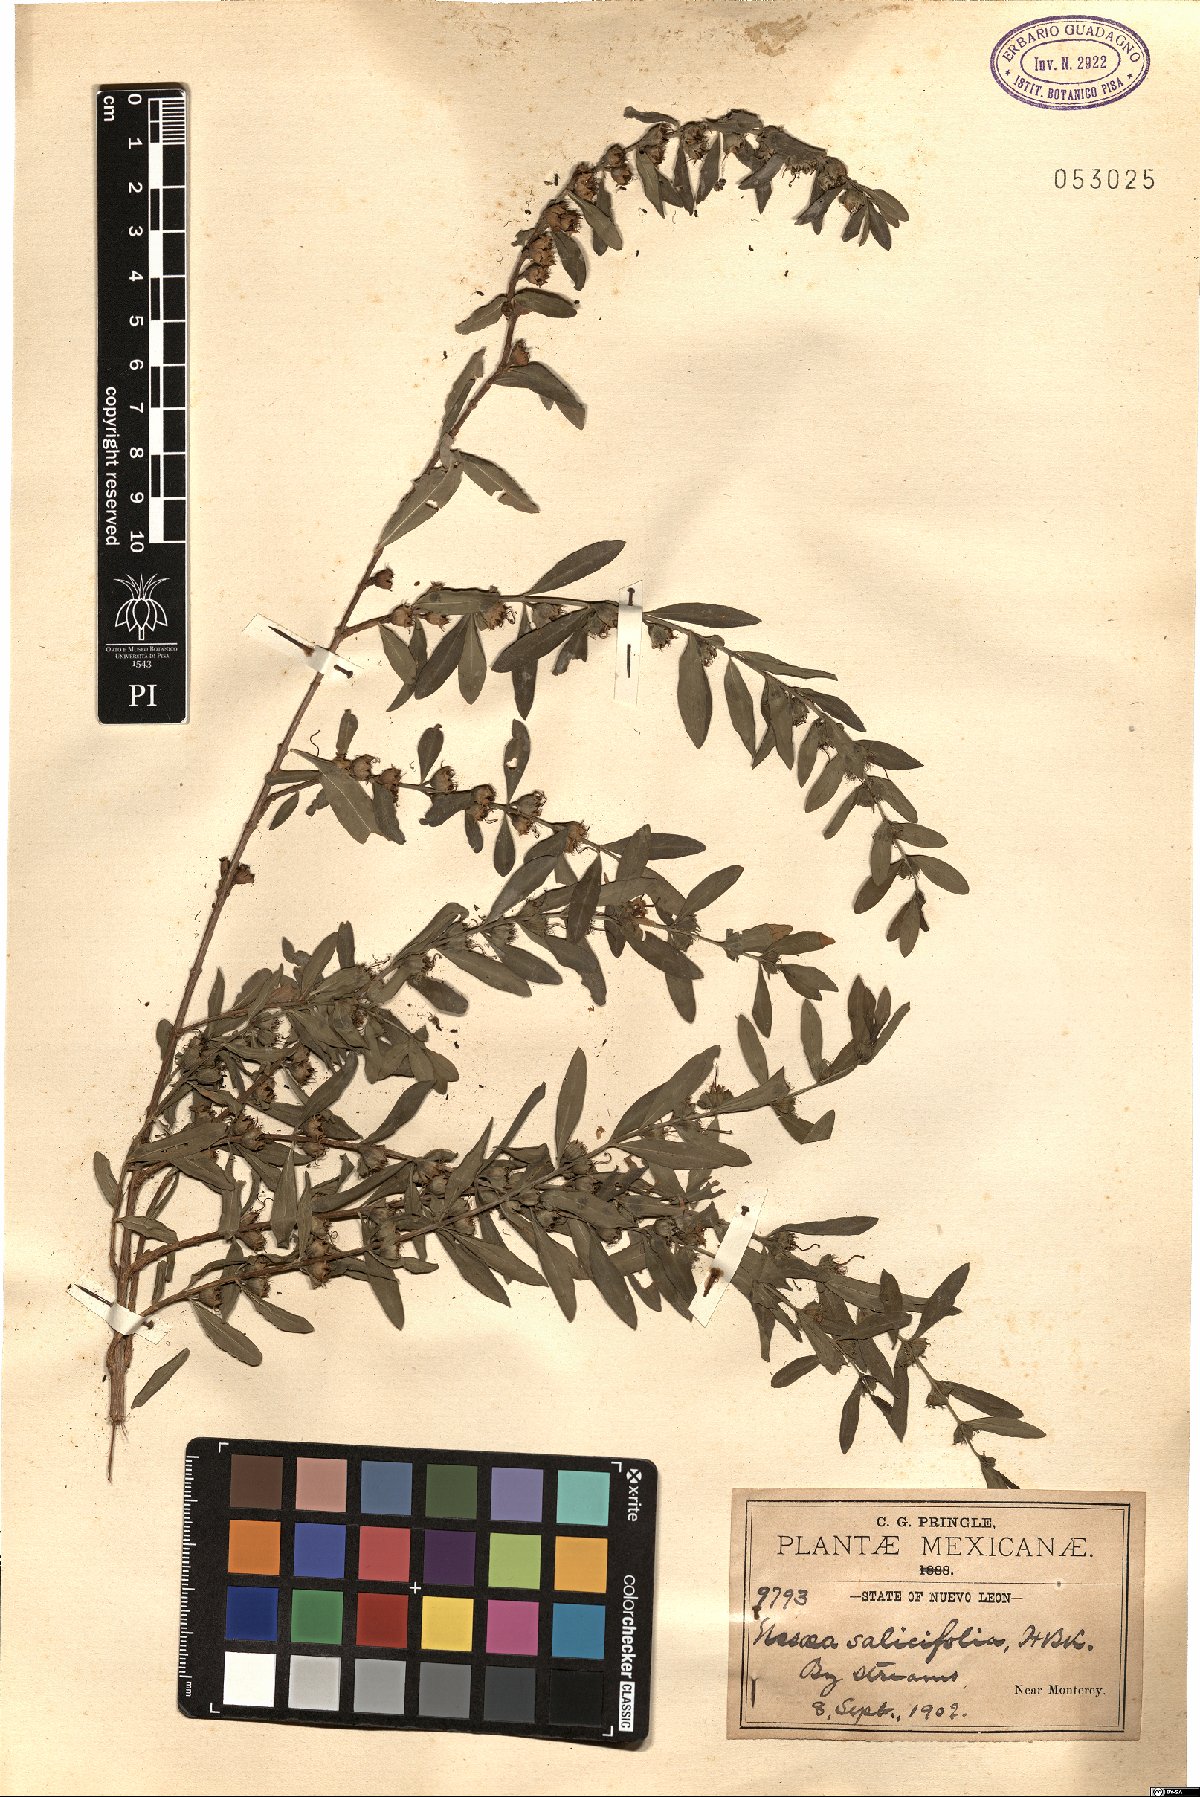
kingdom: Plantae
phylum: Tracheophyta
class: Magnoliopsida
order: Myrtales
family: Lythraceae
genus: Heimia
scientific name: Heimia salicifolia
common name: Willow-leaf heimia
